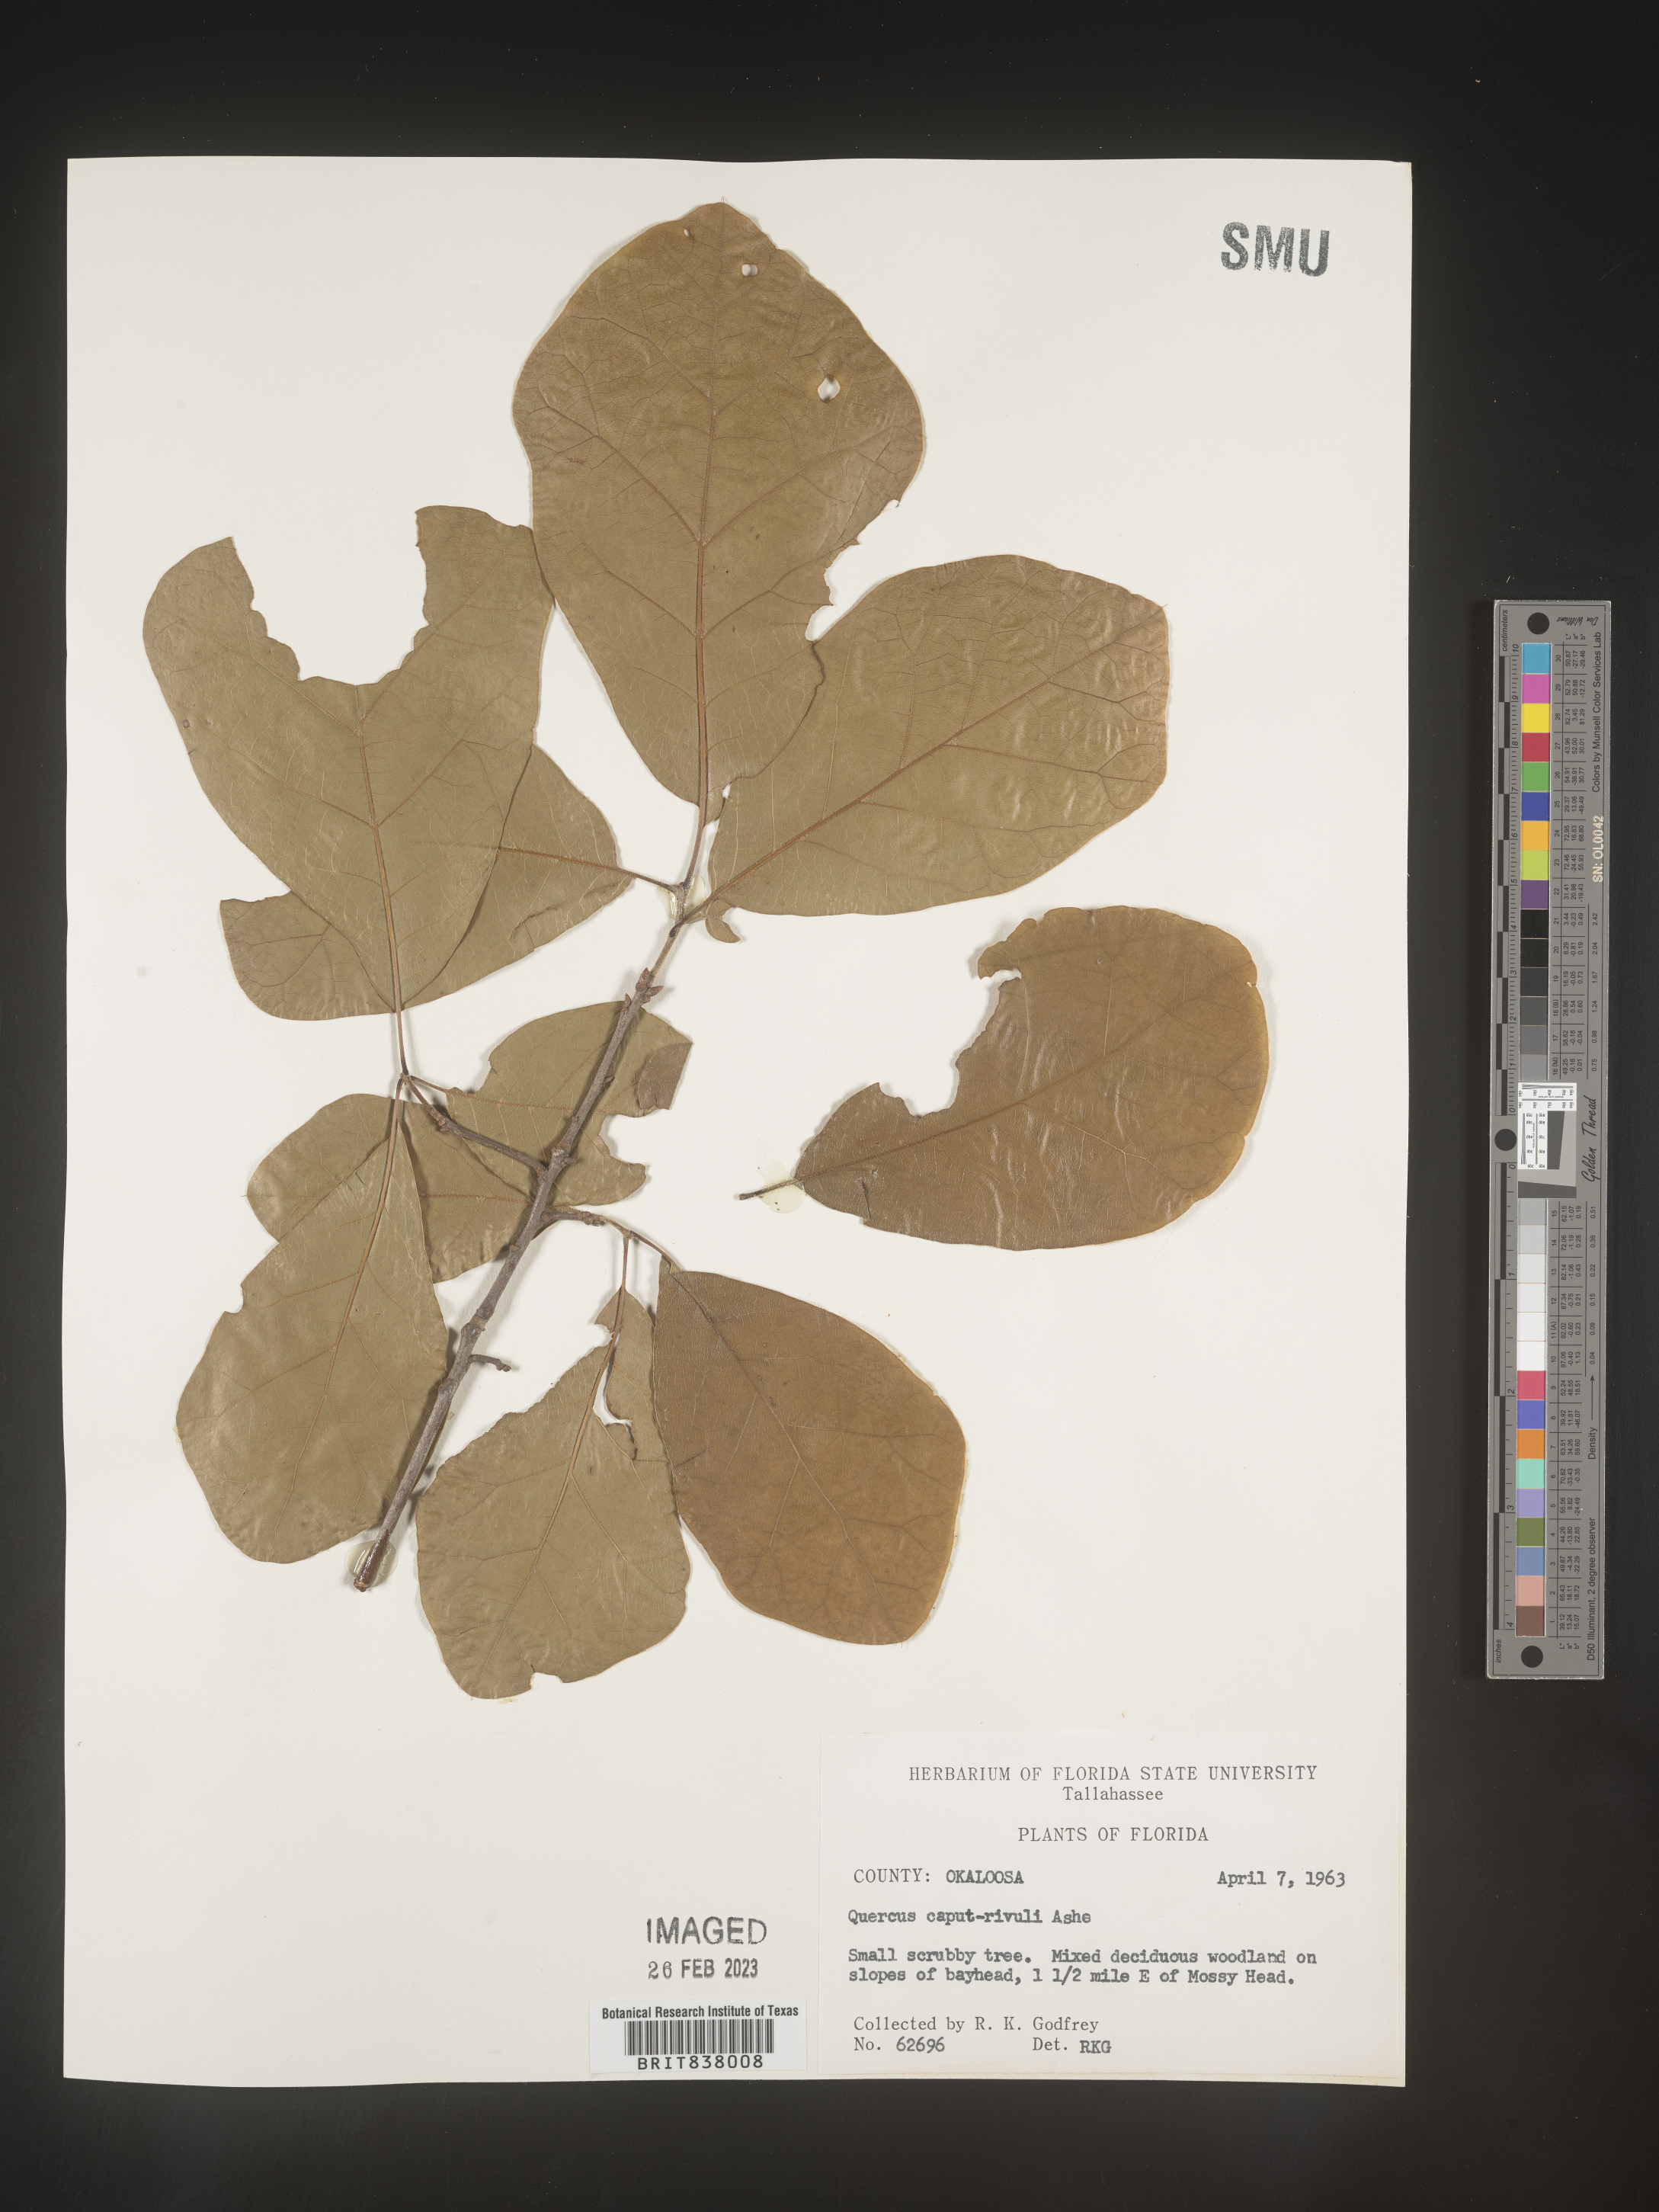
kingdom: Plantae
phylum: Tracheophyta
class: Magnoliopsida
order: Fagales
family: Fagaceae
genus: Quercus
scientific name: Quercus
